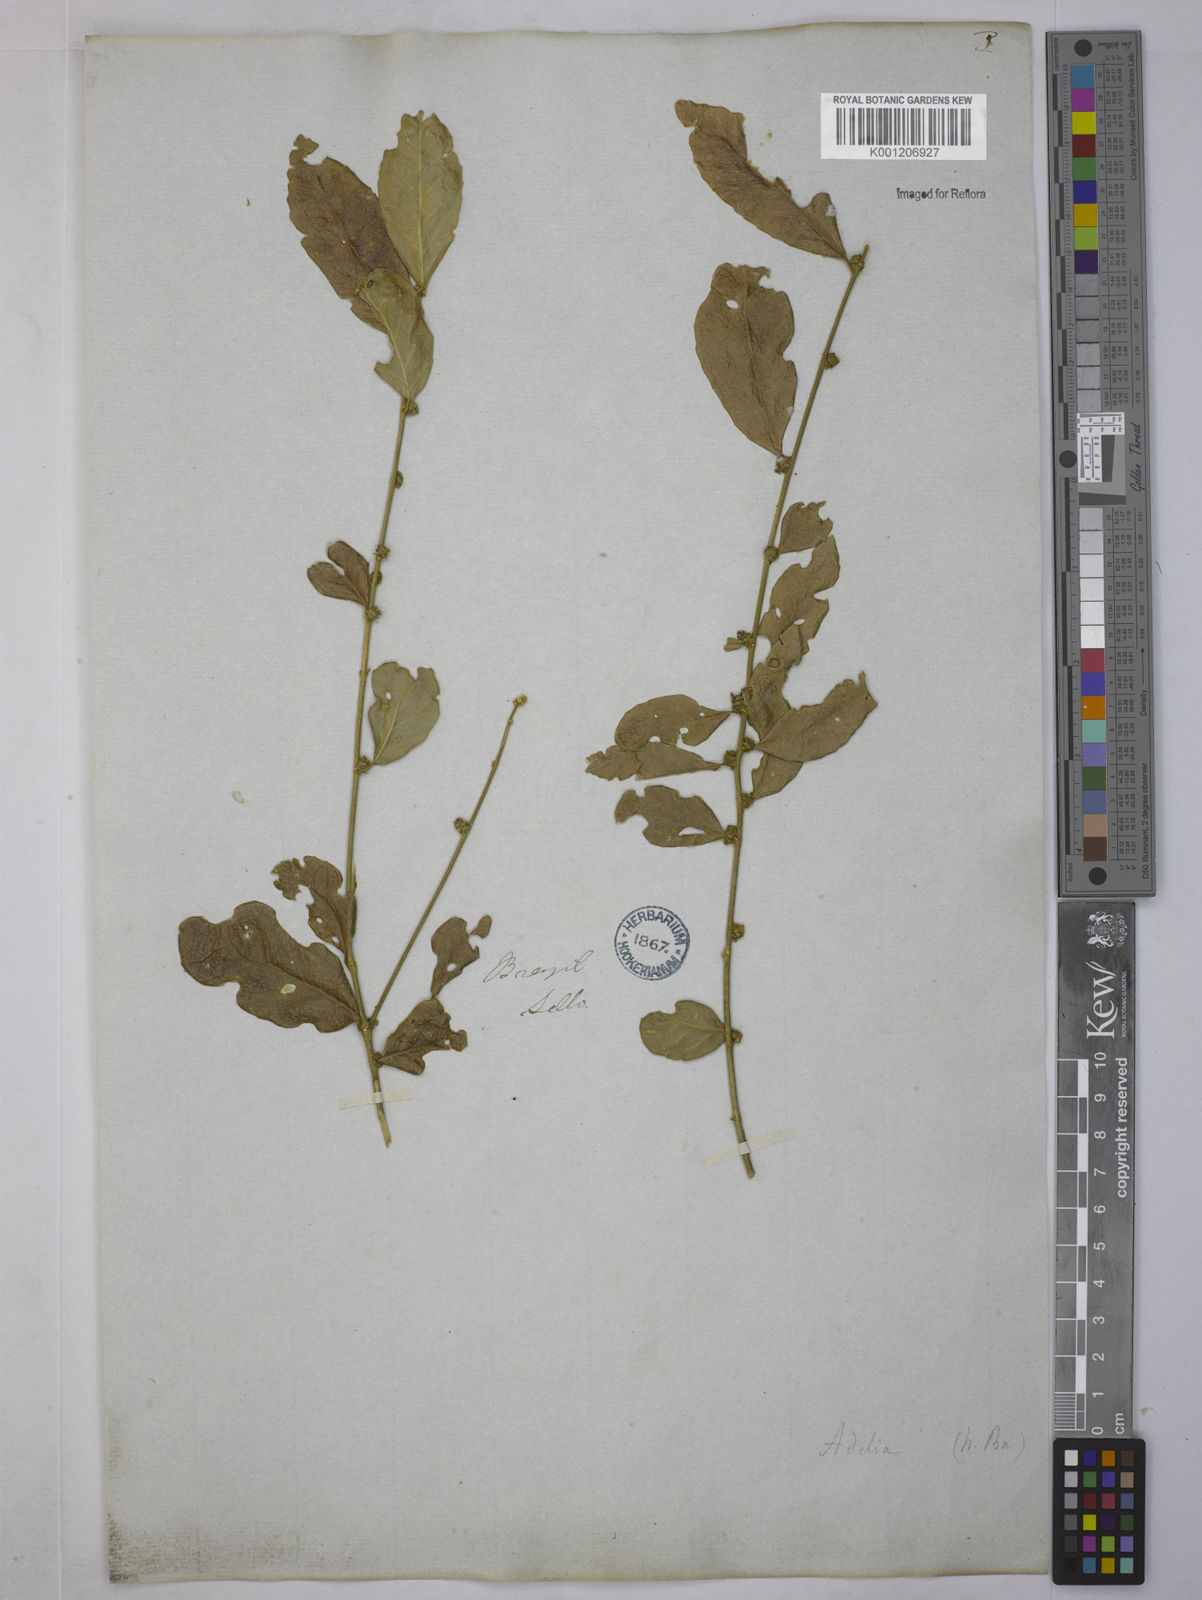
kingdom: Plantae
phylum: Tracheophyta
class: Magnoliopsida
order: Malpighiales
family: Euphorbiaceae
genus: Bernardia
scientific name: Bernardia
